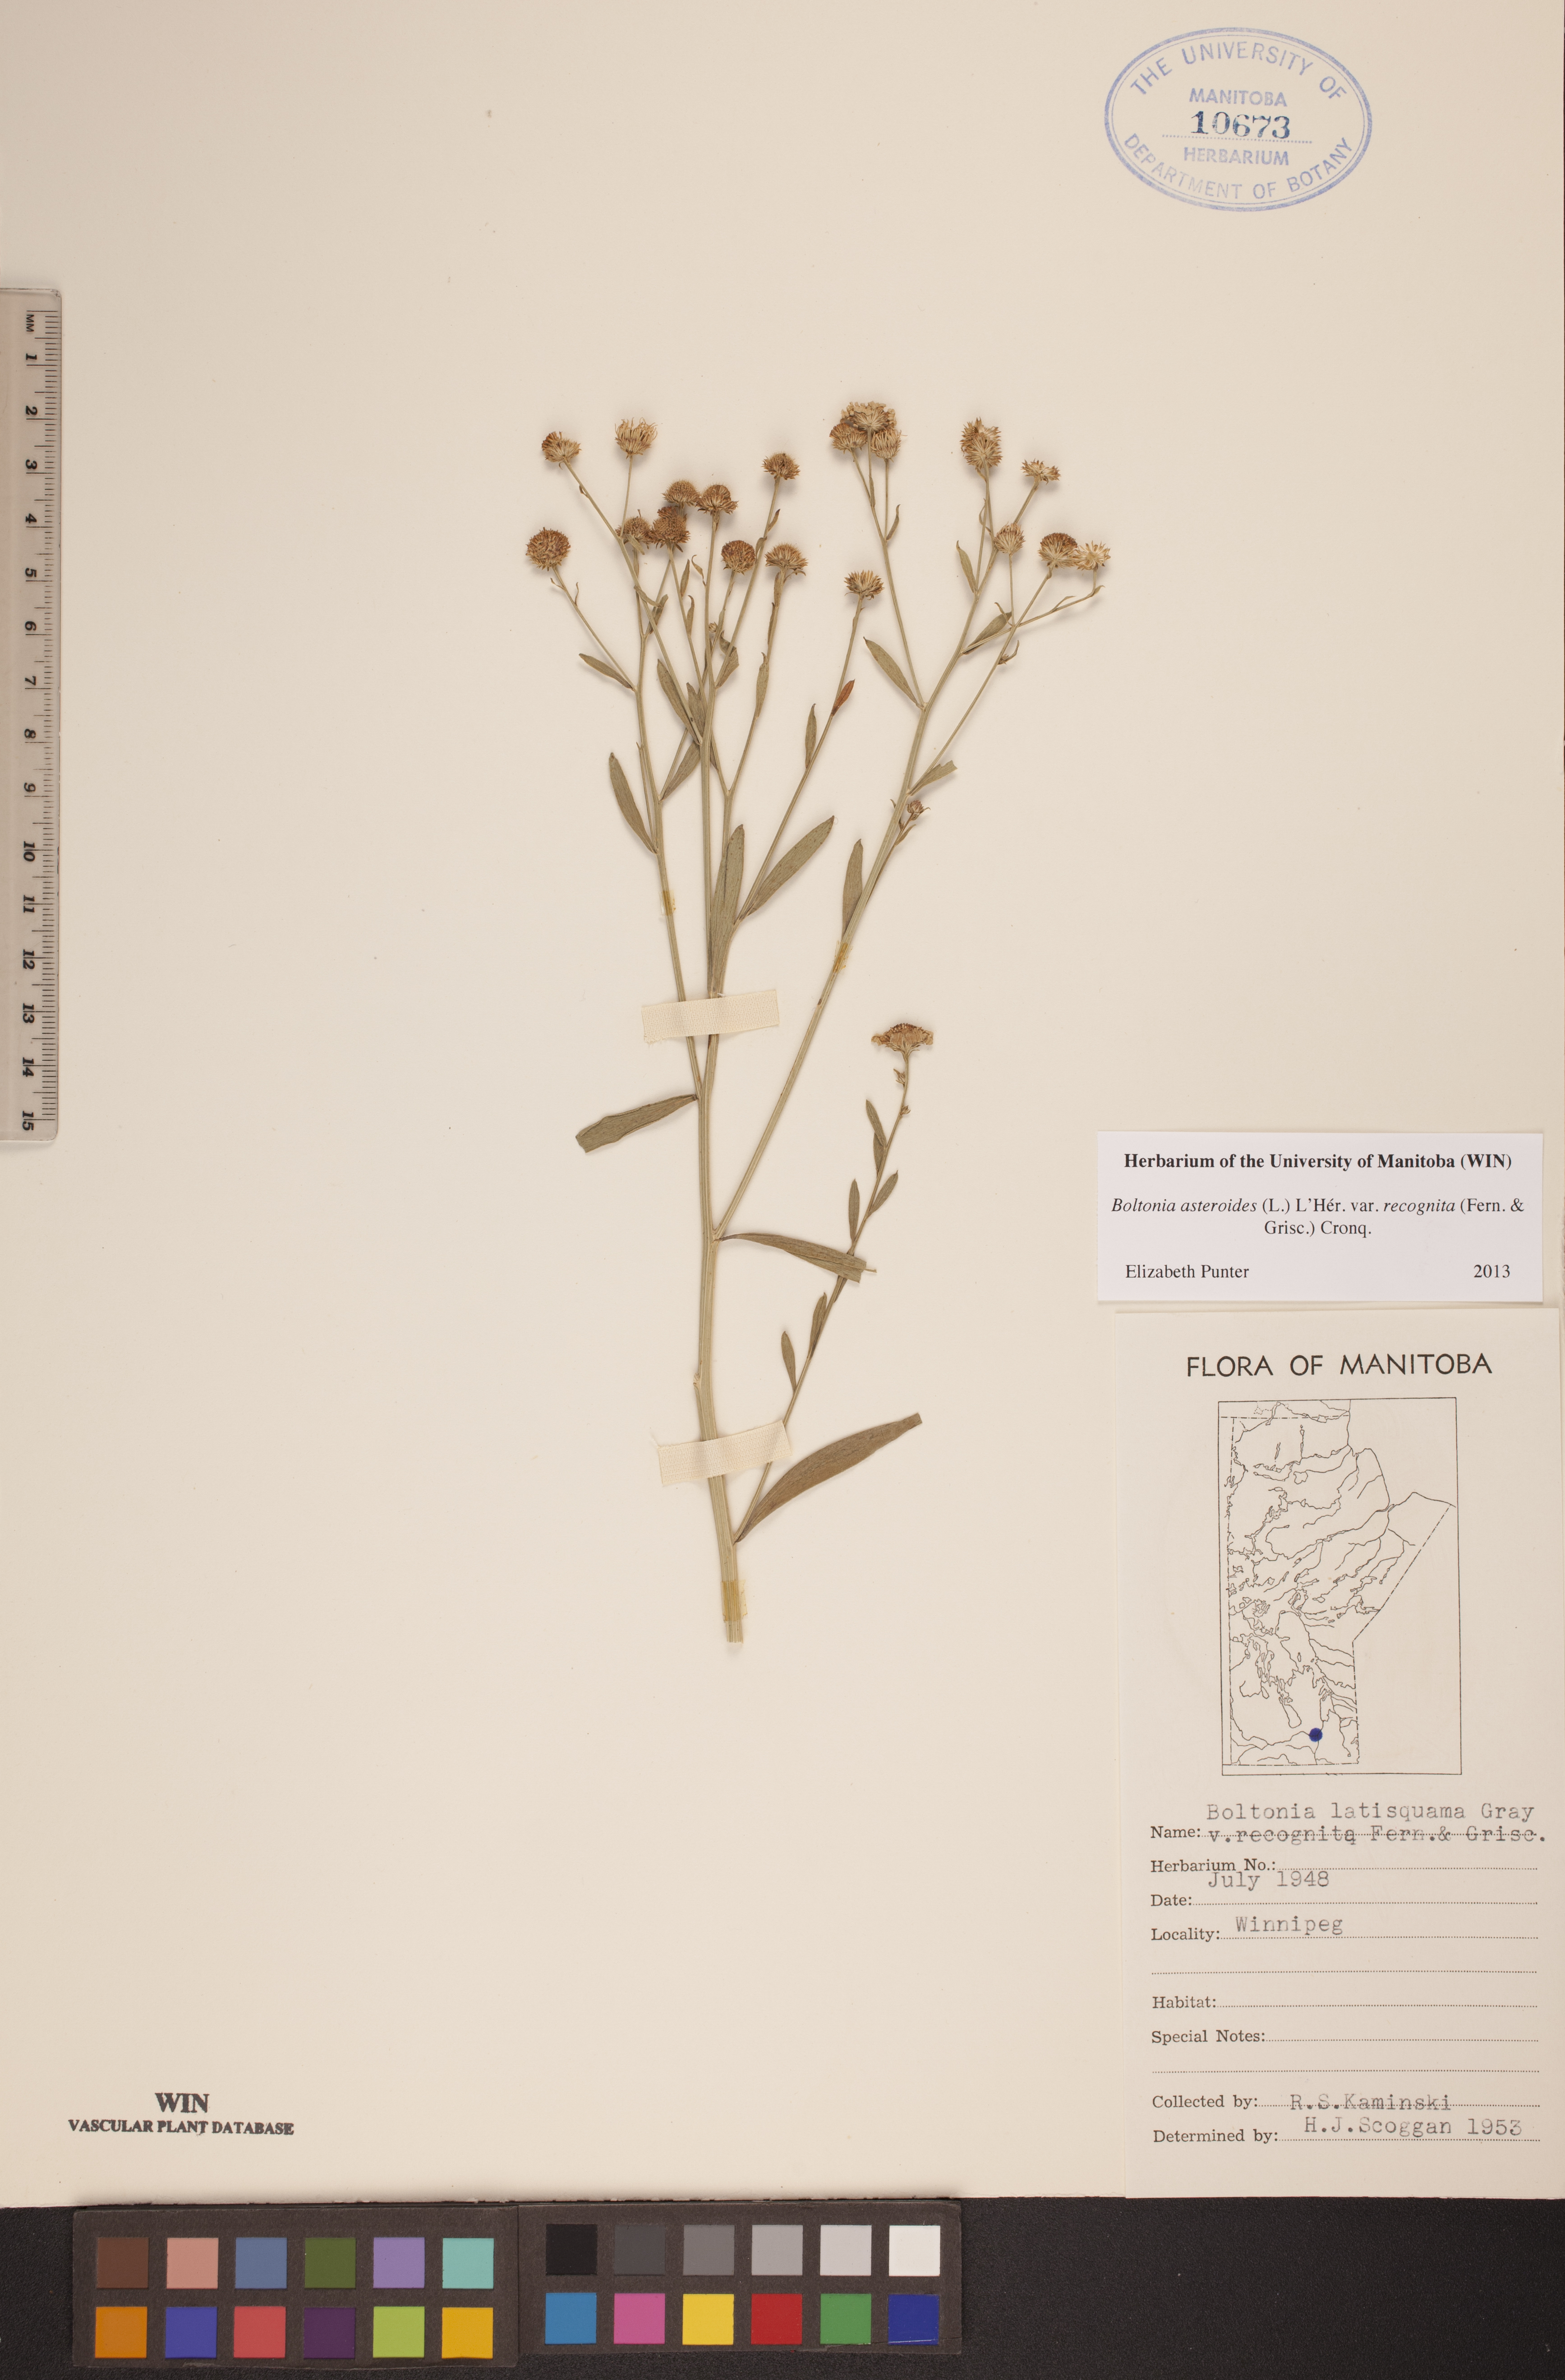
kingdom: Plantae
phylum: Tracheophyta
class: Magnoliopsida
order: Asterales
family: Asteraceae
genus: Boltonia
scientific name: Boltonia asteroides
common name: False chamomile
